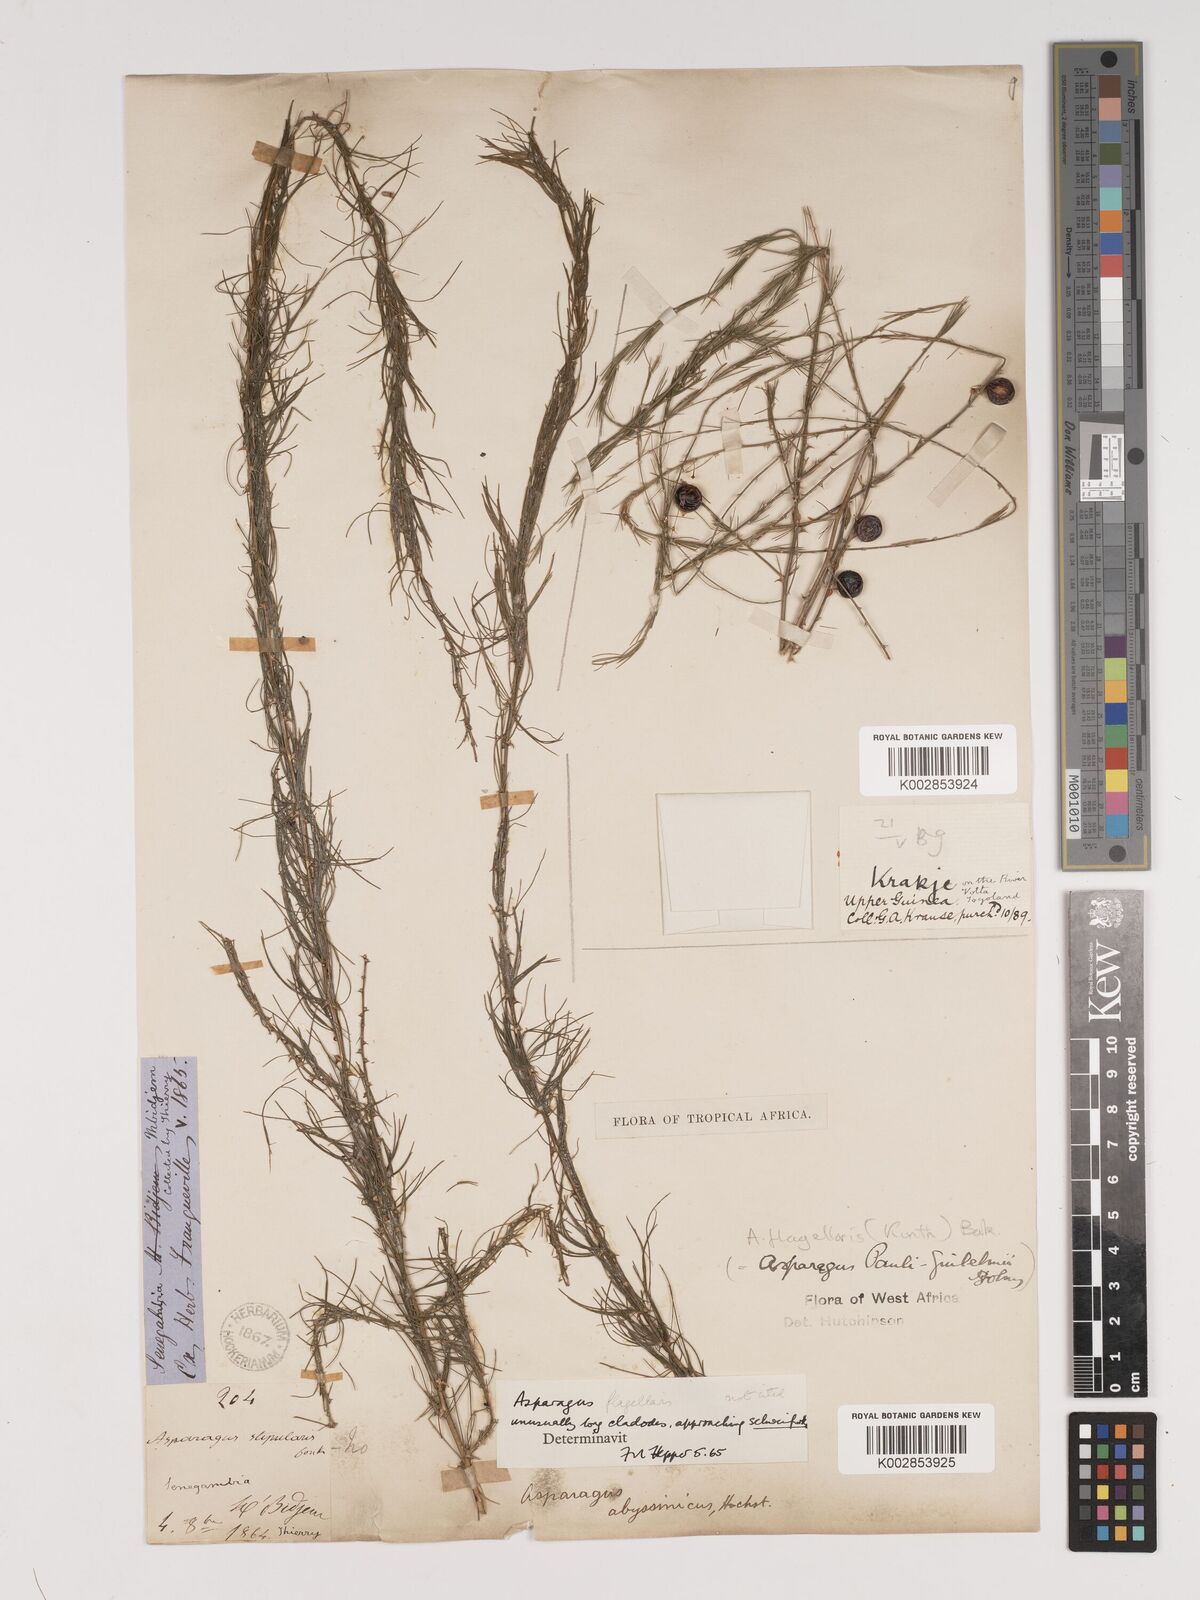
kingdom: Plantae
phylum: Tracheophyta
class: Liliopsida
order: Asparagales
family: Asparagaceae
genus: Asparagus
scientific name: Asparagus flagellaris
